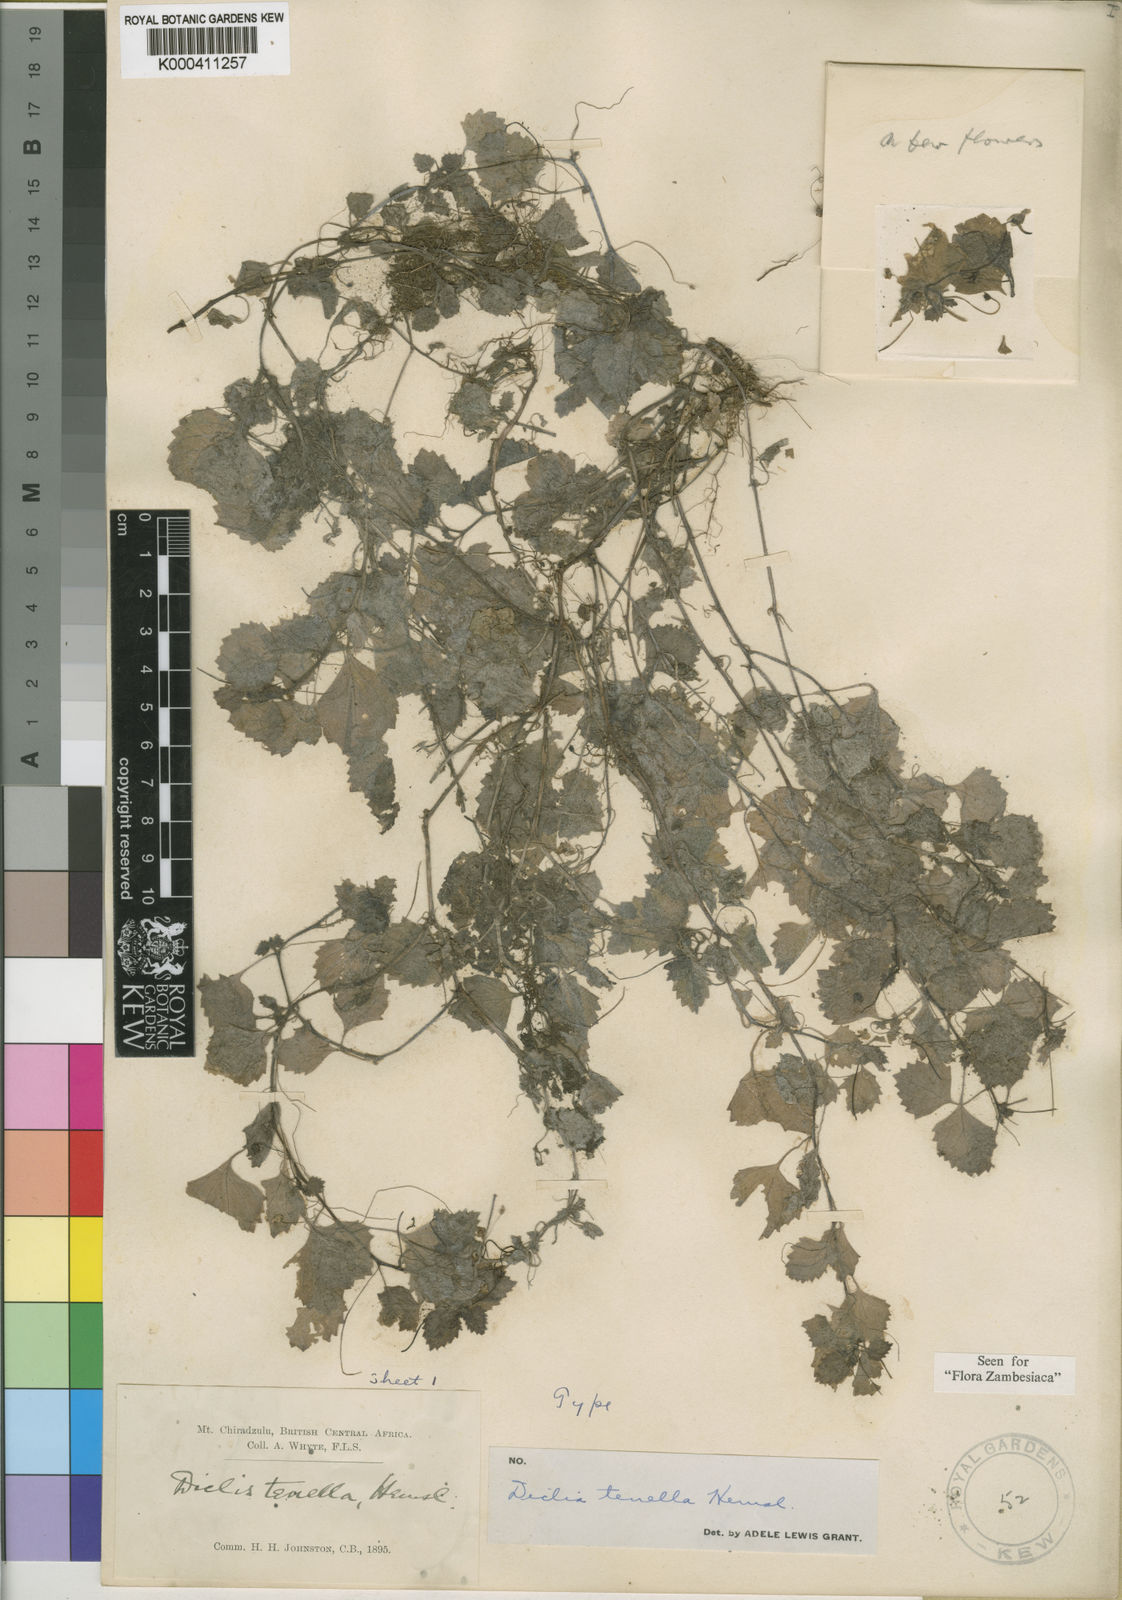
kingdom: Plantae
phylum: Tracheophyta
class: Magnoliopsida
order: Lamiales
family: Scrophulariaceae
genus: Diclis
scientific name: Diclis tenella
